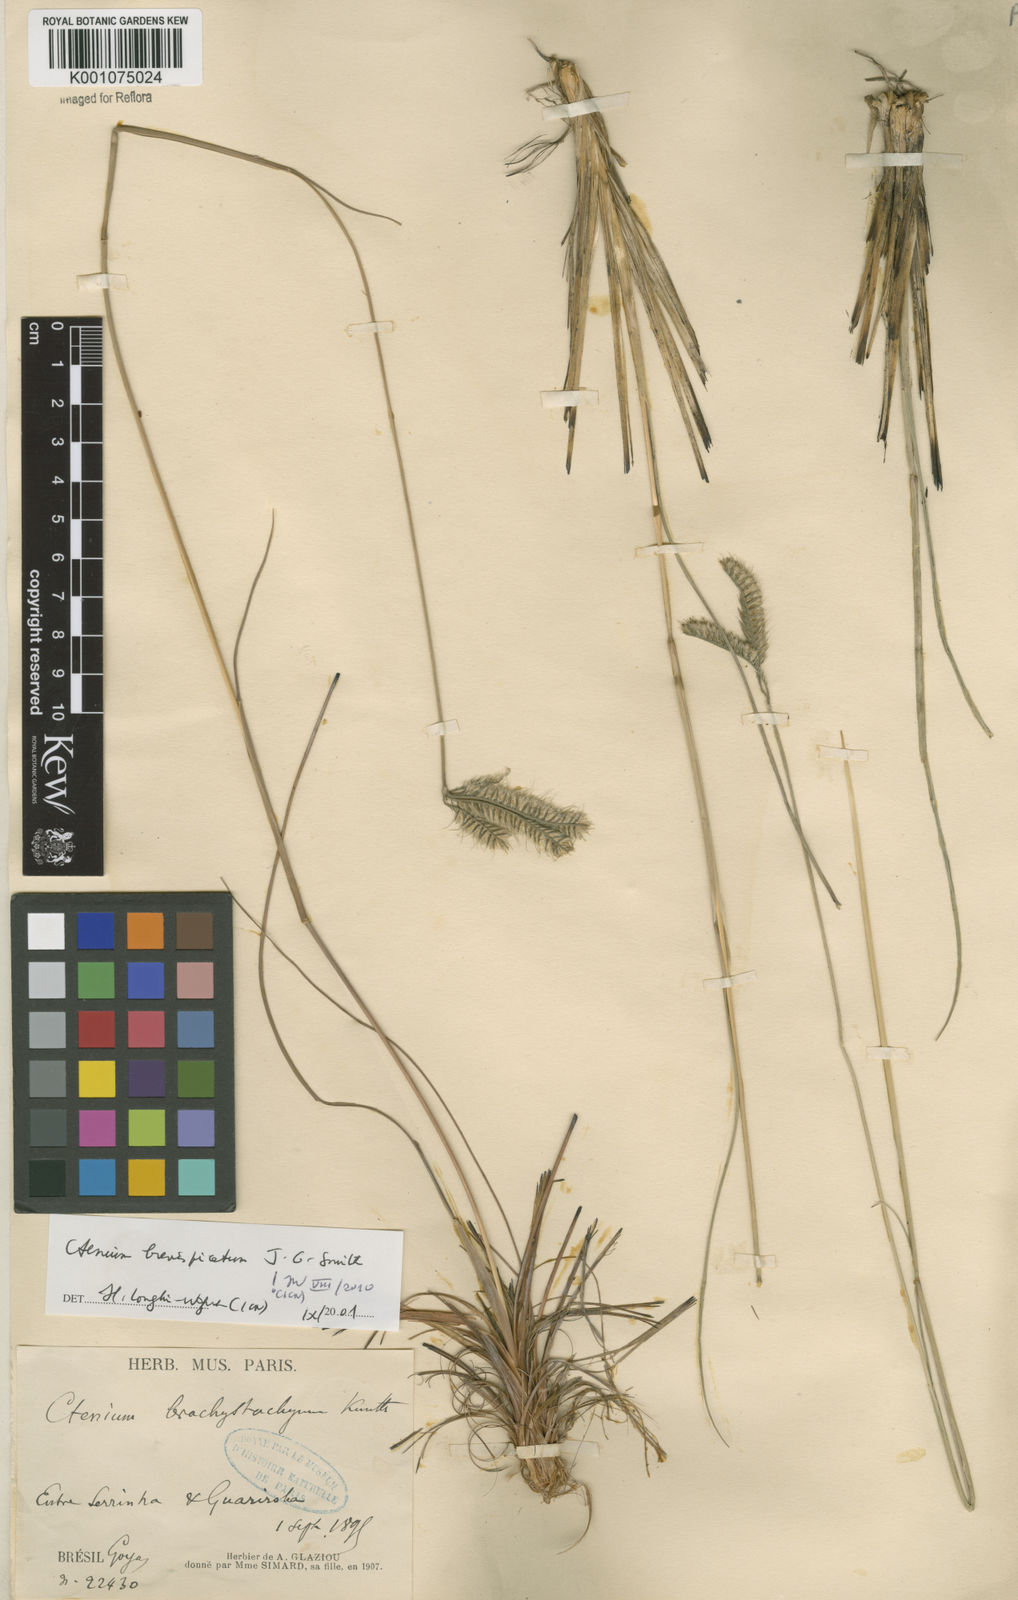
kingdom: Plantae
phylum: Tracheophyta
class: Liliopsida
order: Poales
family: Poaceae
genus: Ctenium
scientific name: Ctenium brevispicatum
